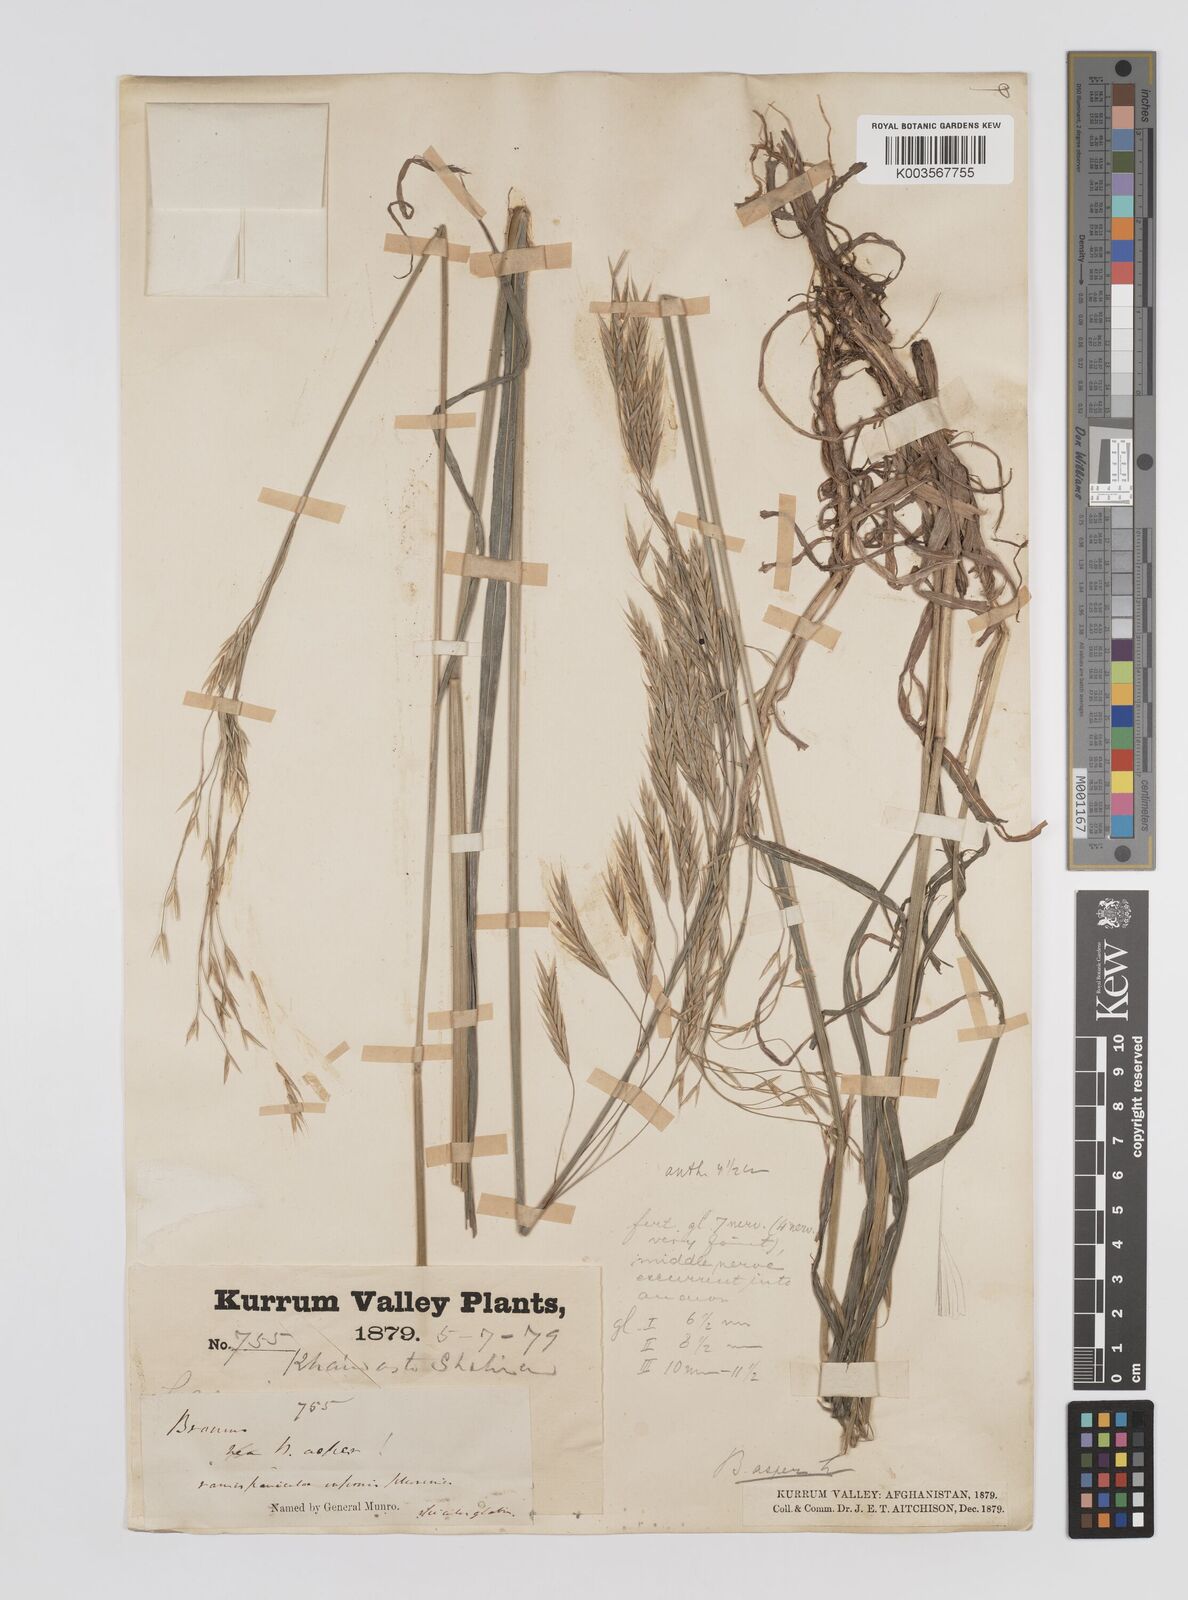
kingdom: Plantae
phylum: Tracheophyta
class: Liliopsida
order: Poales
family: Poaceae
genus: Bromus
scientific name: Bromus
